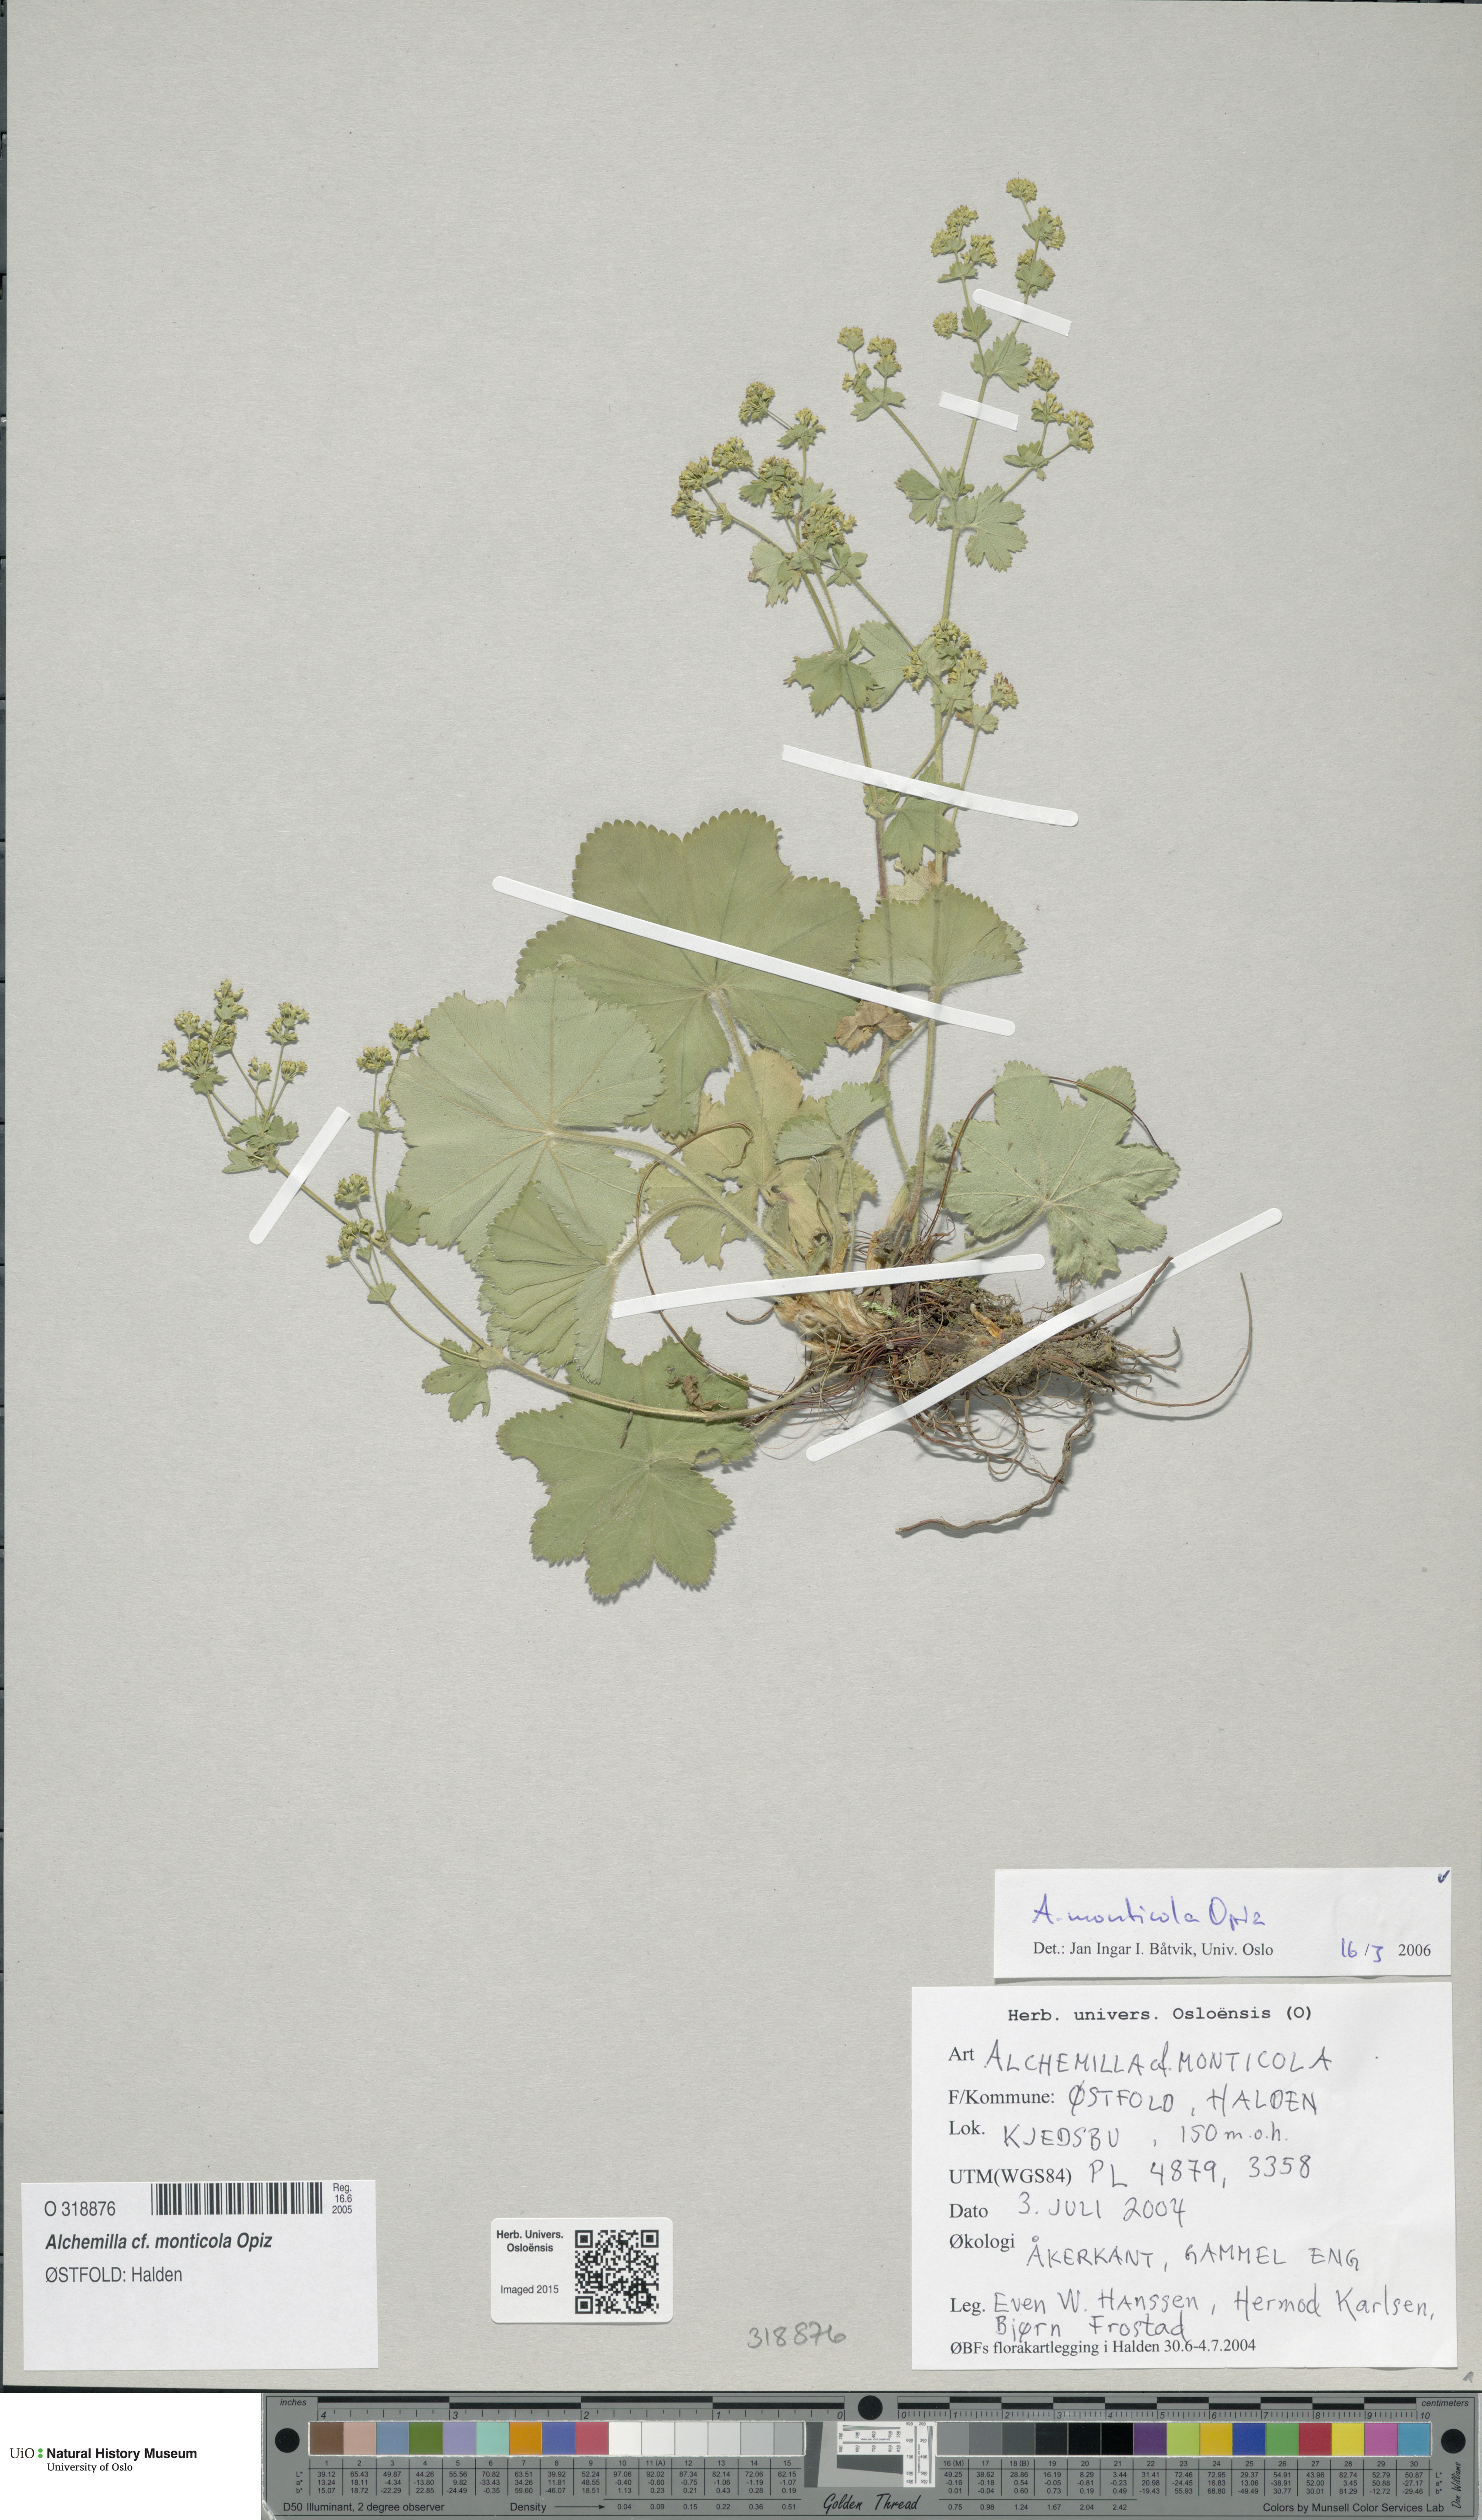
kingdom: Plantae
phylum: Tracheophyta
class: Magnoliopsida
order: Rosales
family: Rosaceae
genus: Alchemilla
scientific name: Alchemilla monticola
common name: Hairy lady's mantle
